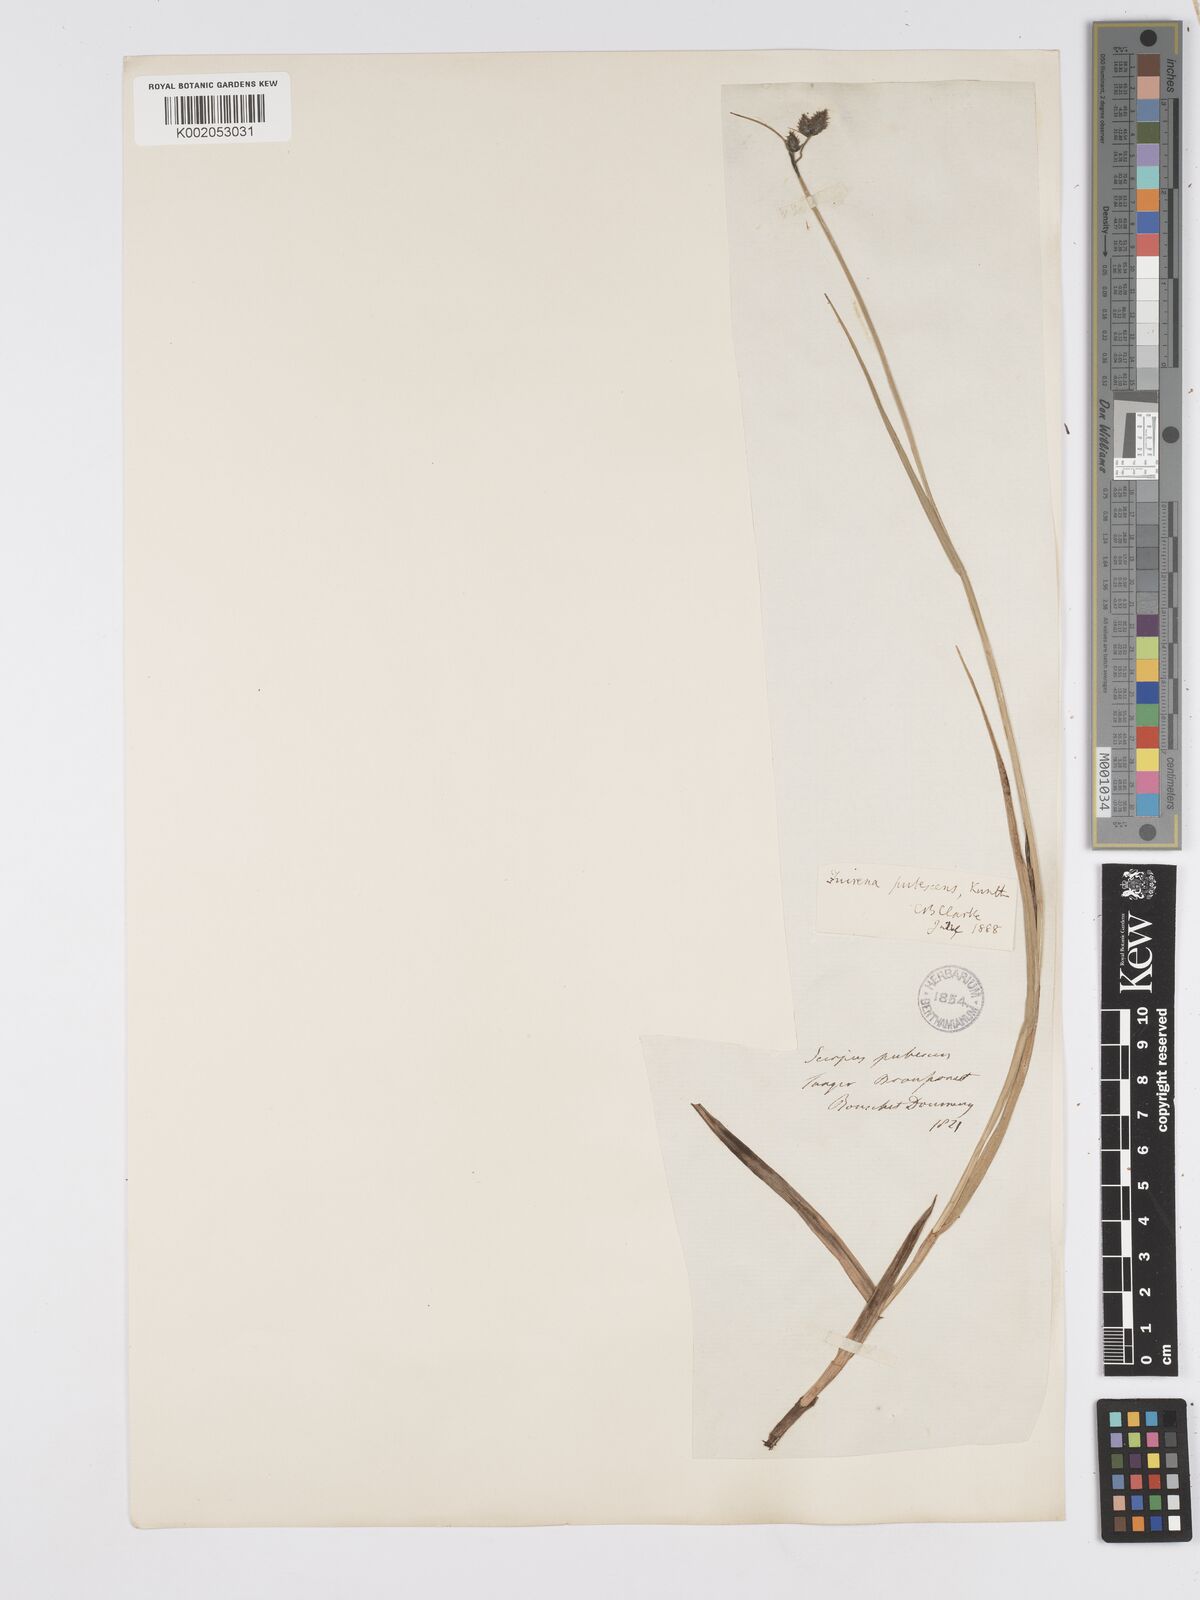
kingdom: Plantae
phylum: Tracheophyta
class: Liliopsida
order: Poales
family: Cyperaceae
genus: Fuirena
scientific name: Fuirena pubescens
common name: Hairy sedge
